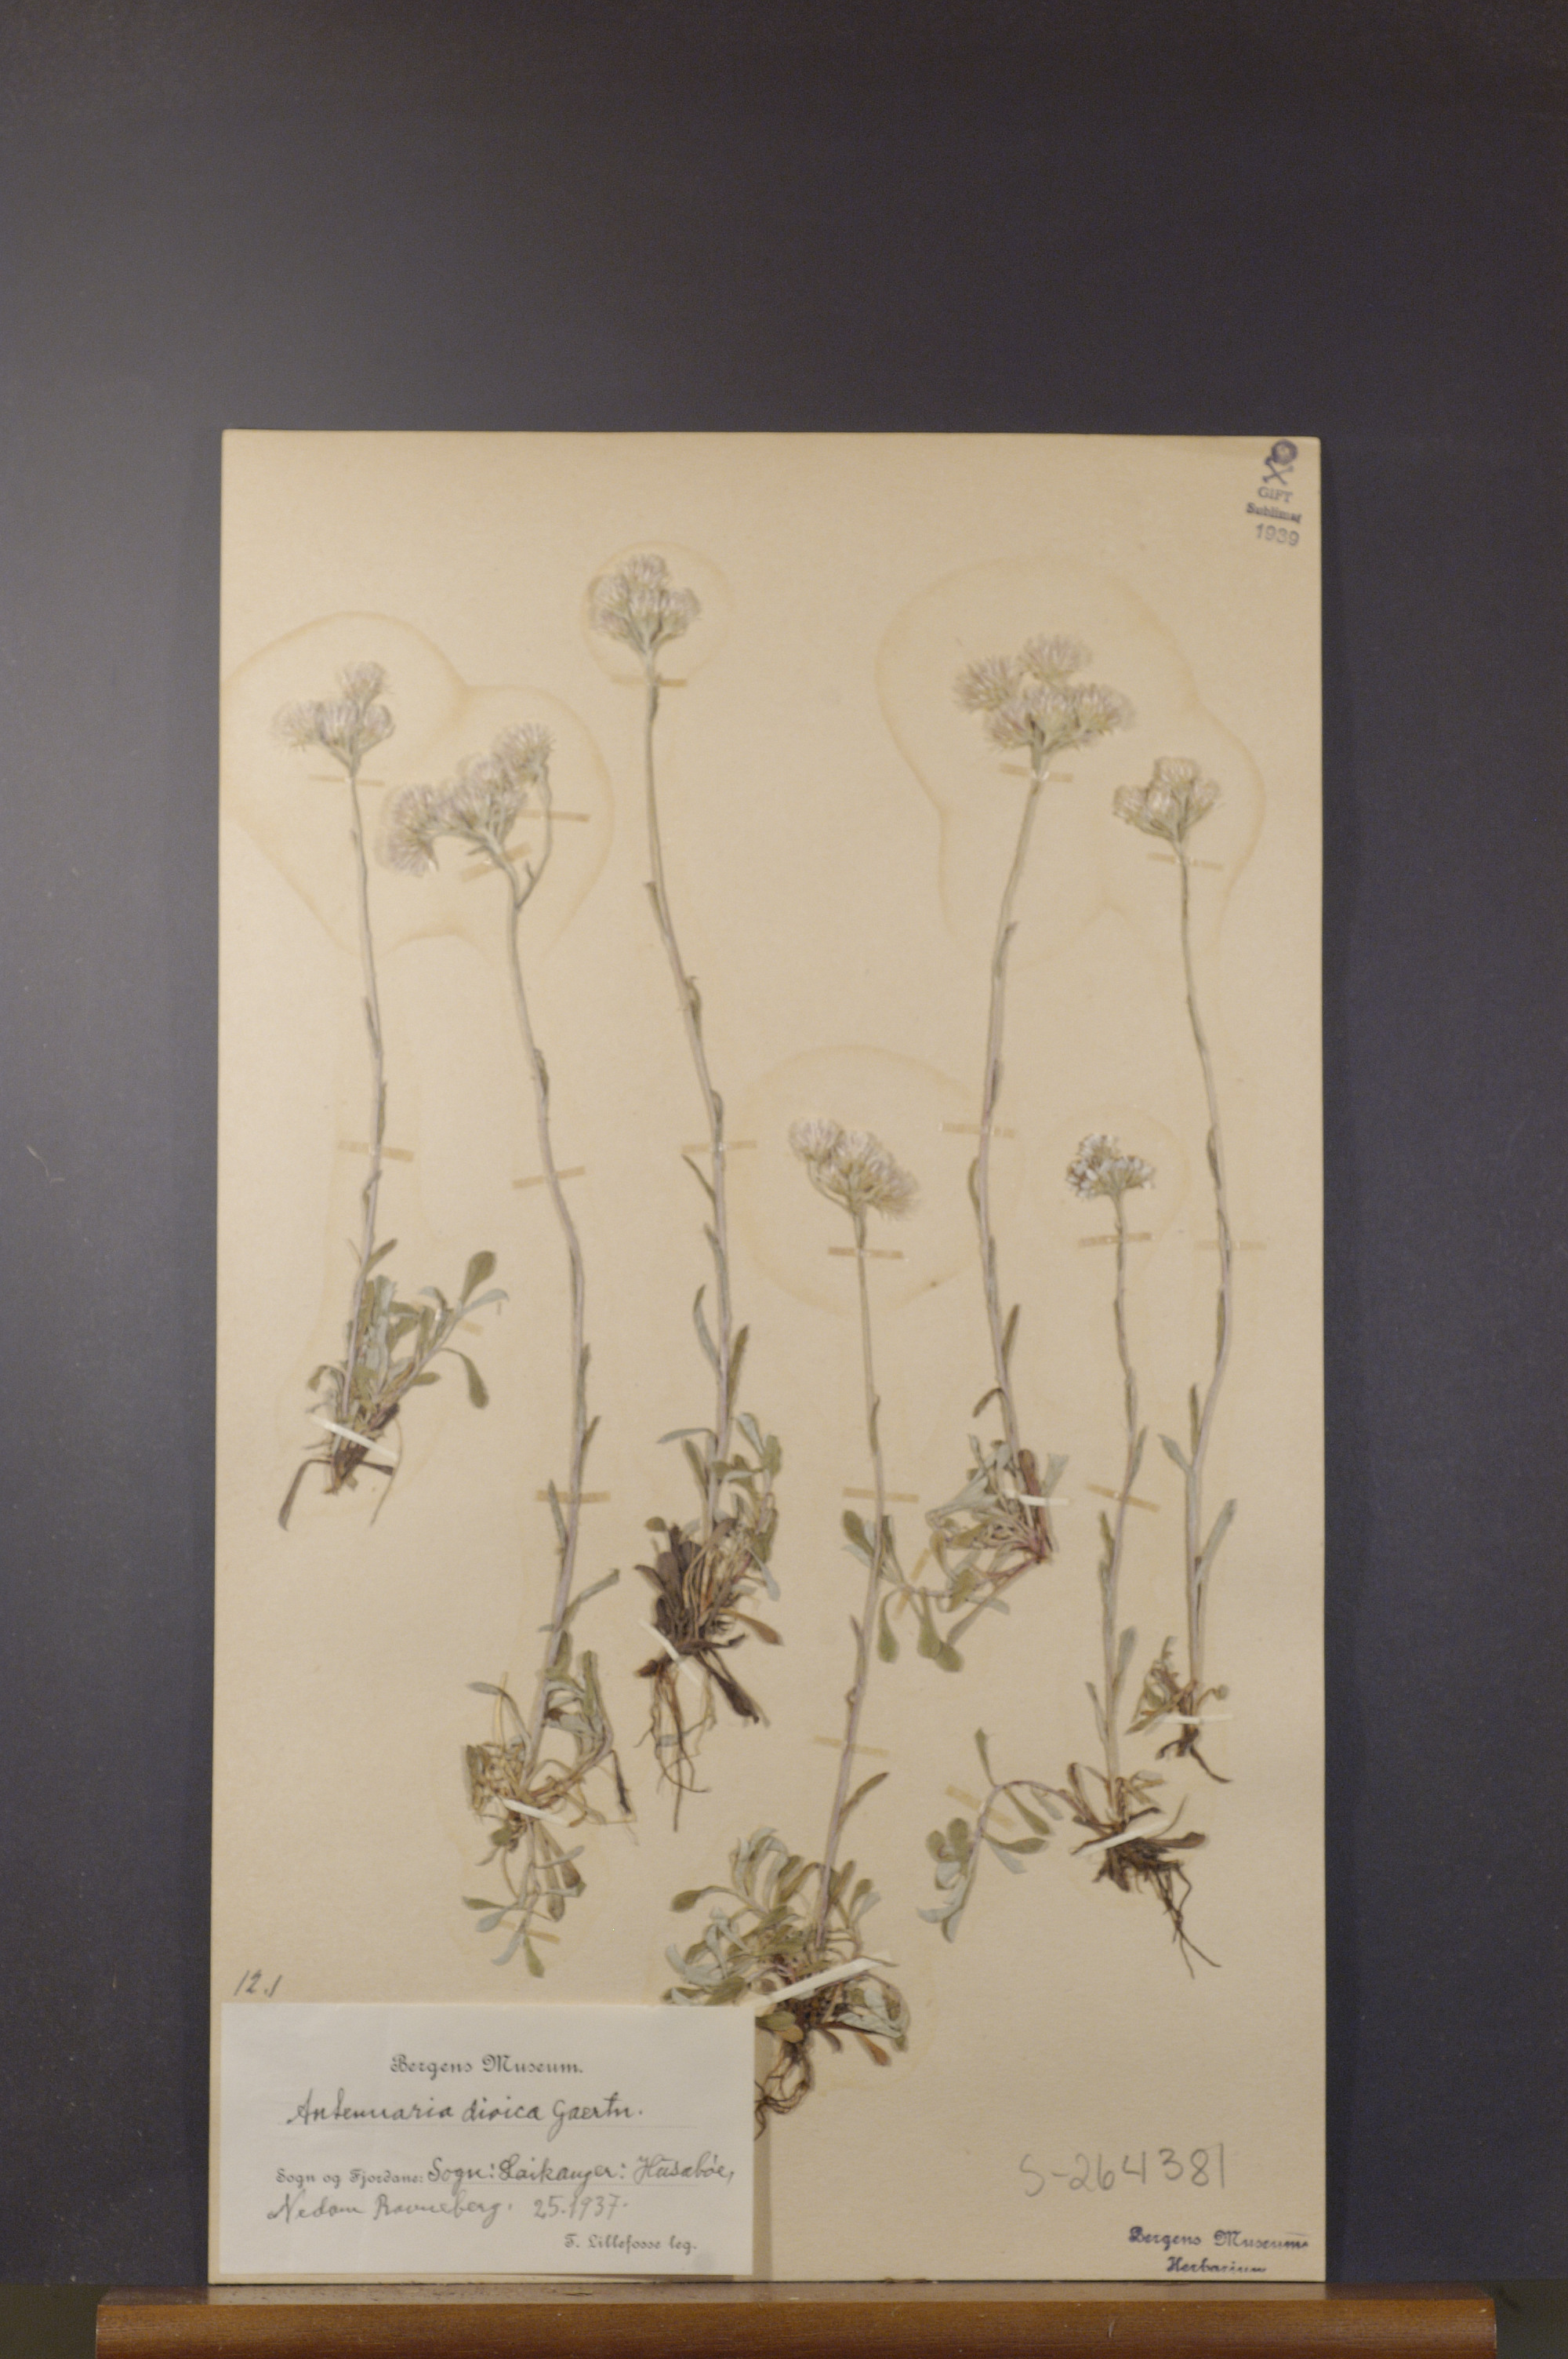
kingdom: Plantae
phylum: Tracheophyta
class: Magnoliopsida
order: Asterales
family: Asteraceae
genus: Antennaria
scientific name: Antennaria dioica
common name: Mountain everlasting
